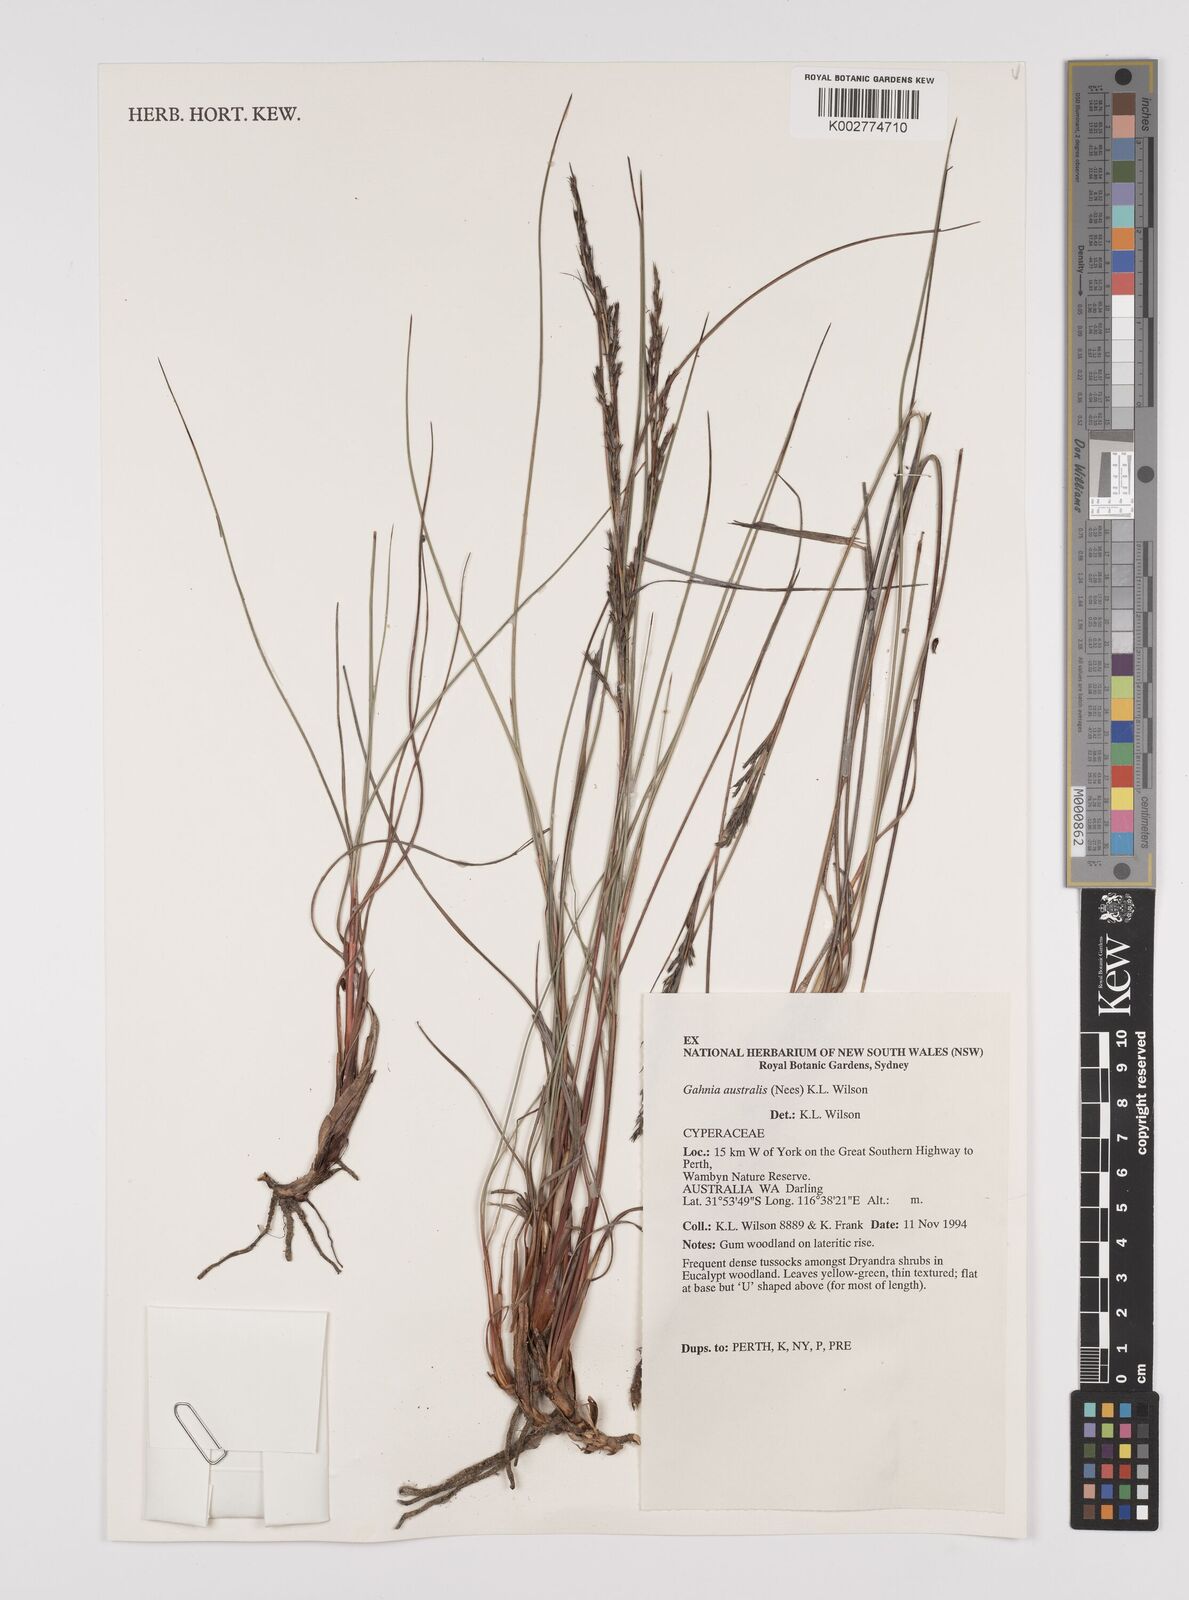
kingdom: Plantae
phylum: Tracheophyta
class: Liliopsida
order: Poales
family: Cyperaceae
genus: Gahnia
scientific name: Gahnia australis
